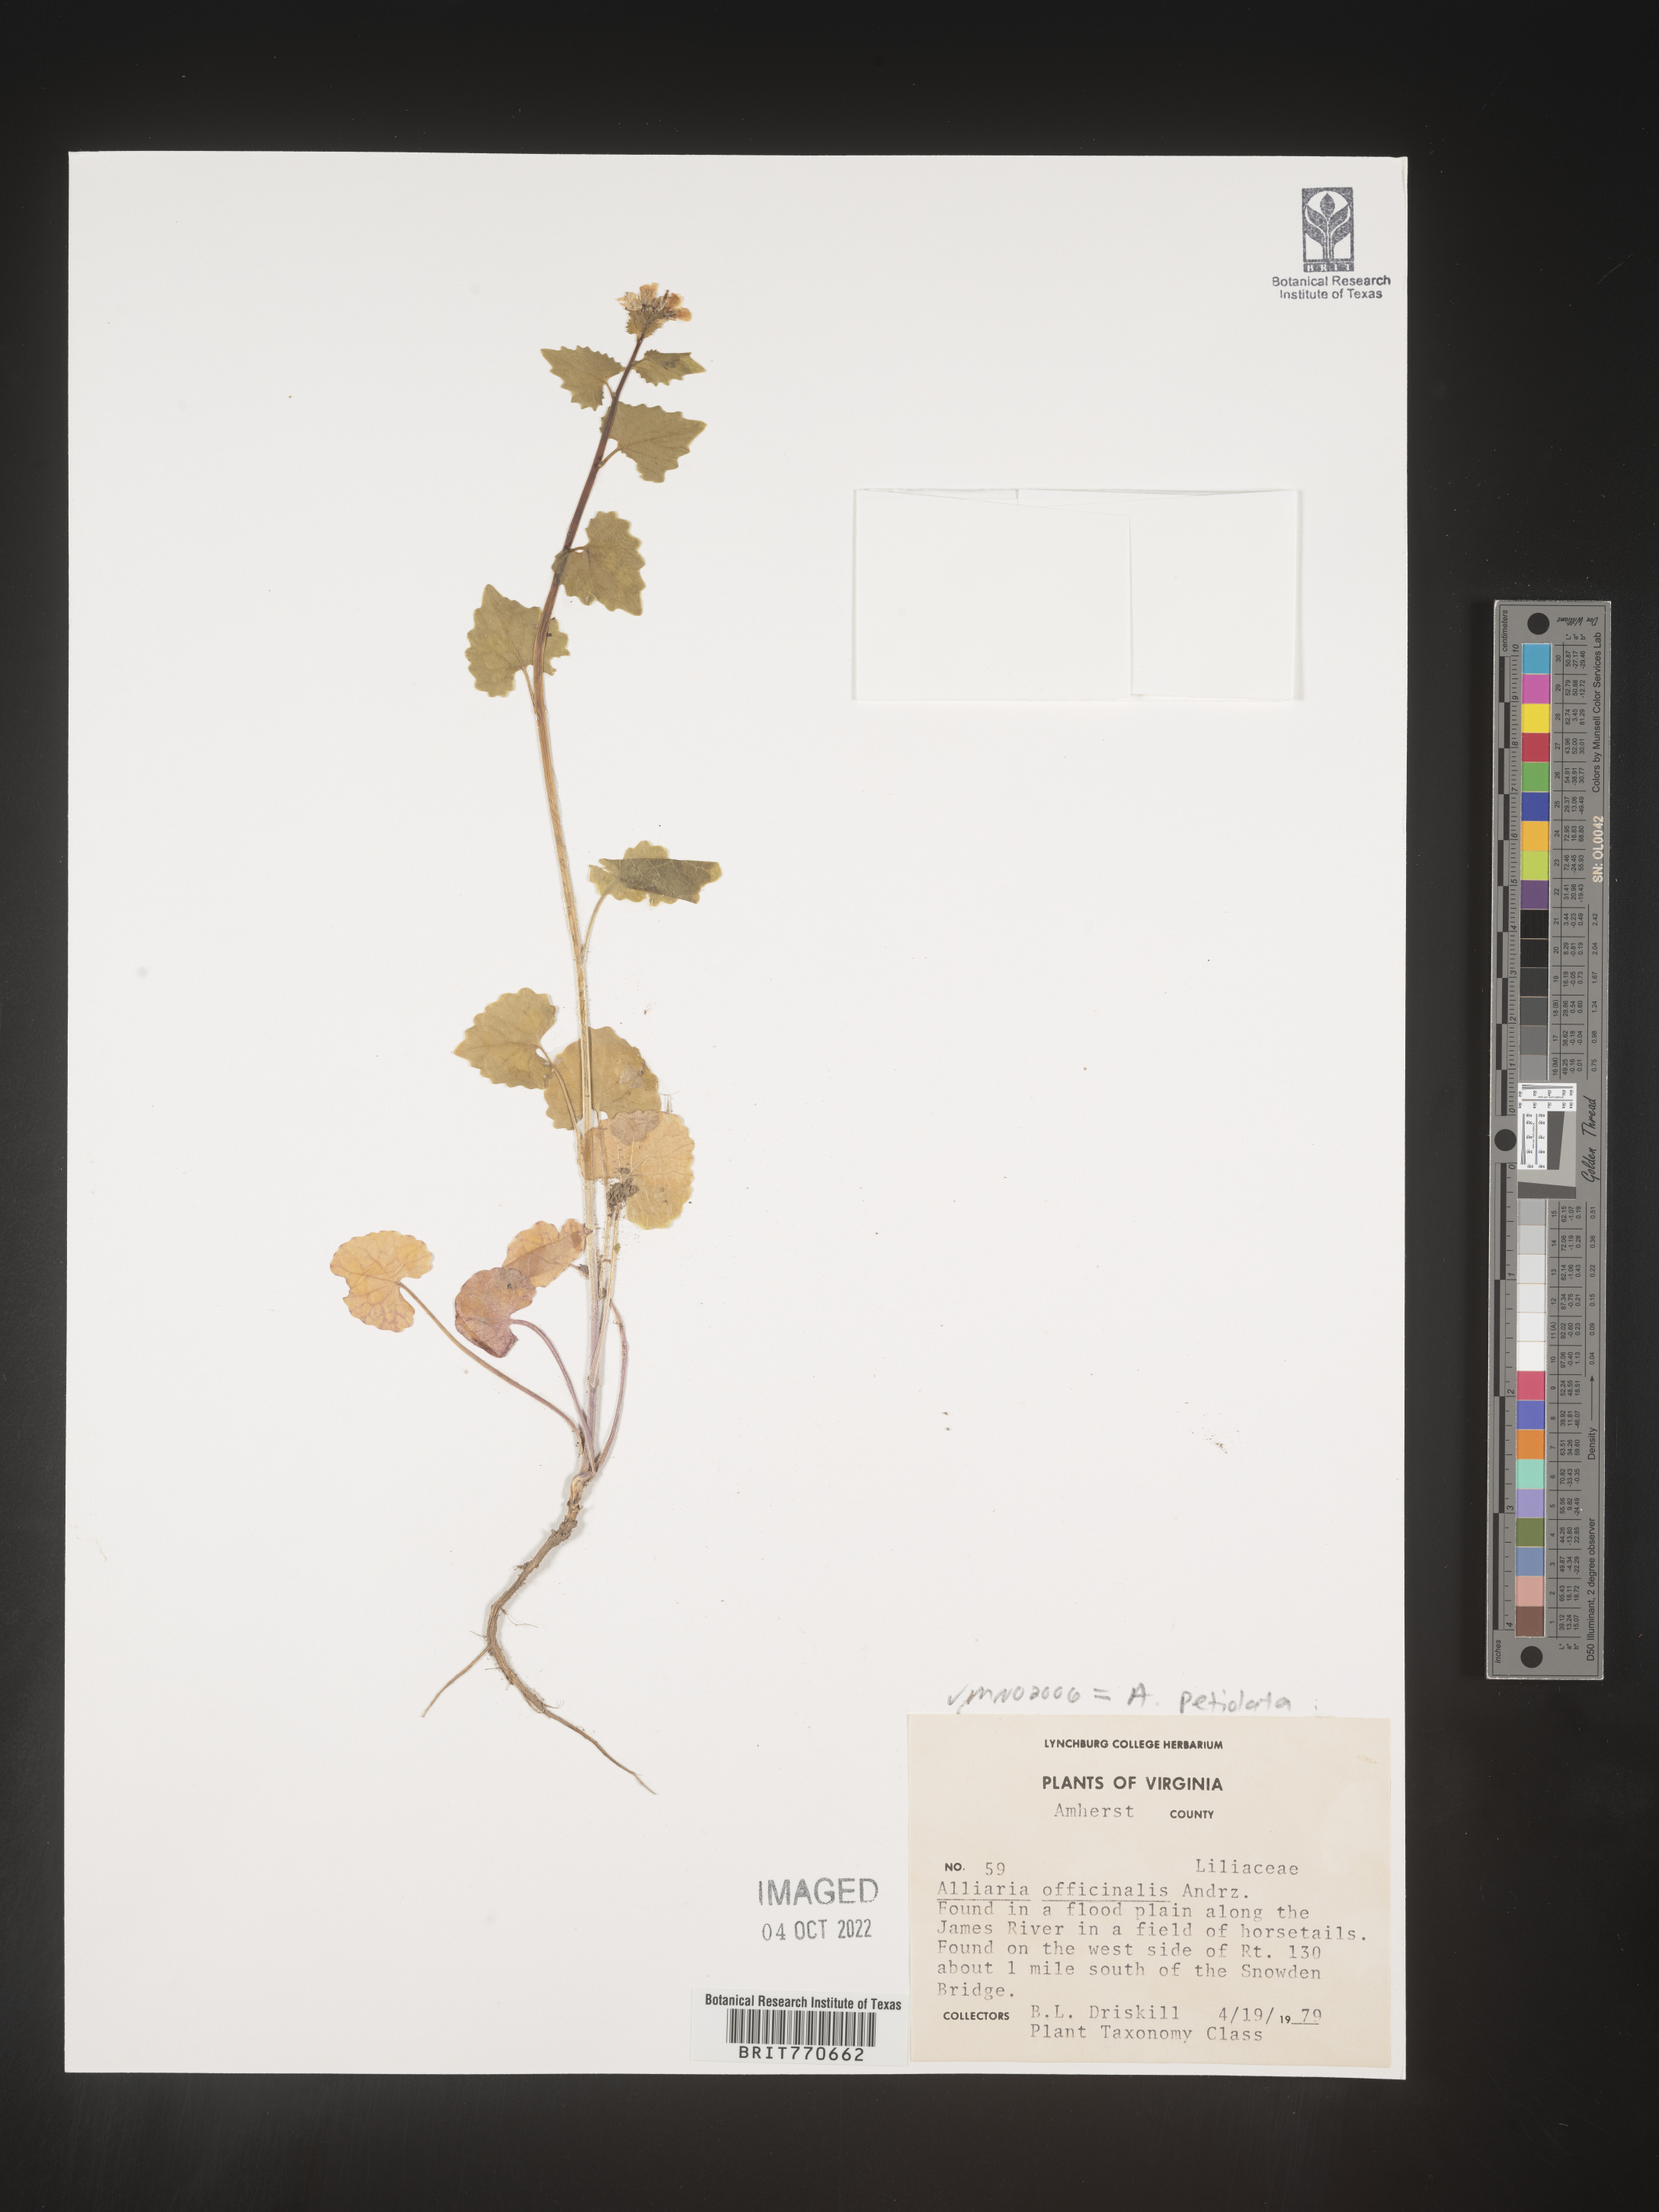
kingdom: Plantae
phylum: Tracheophyta
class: Magnoliopsida
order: Brassicales
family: Brassicaceae
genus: Alliaria
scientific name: Alliaria
